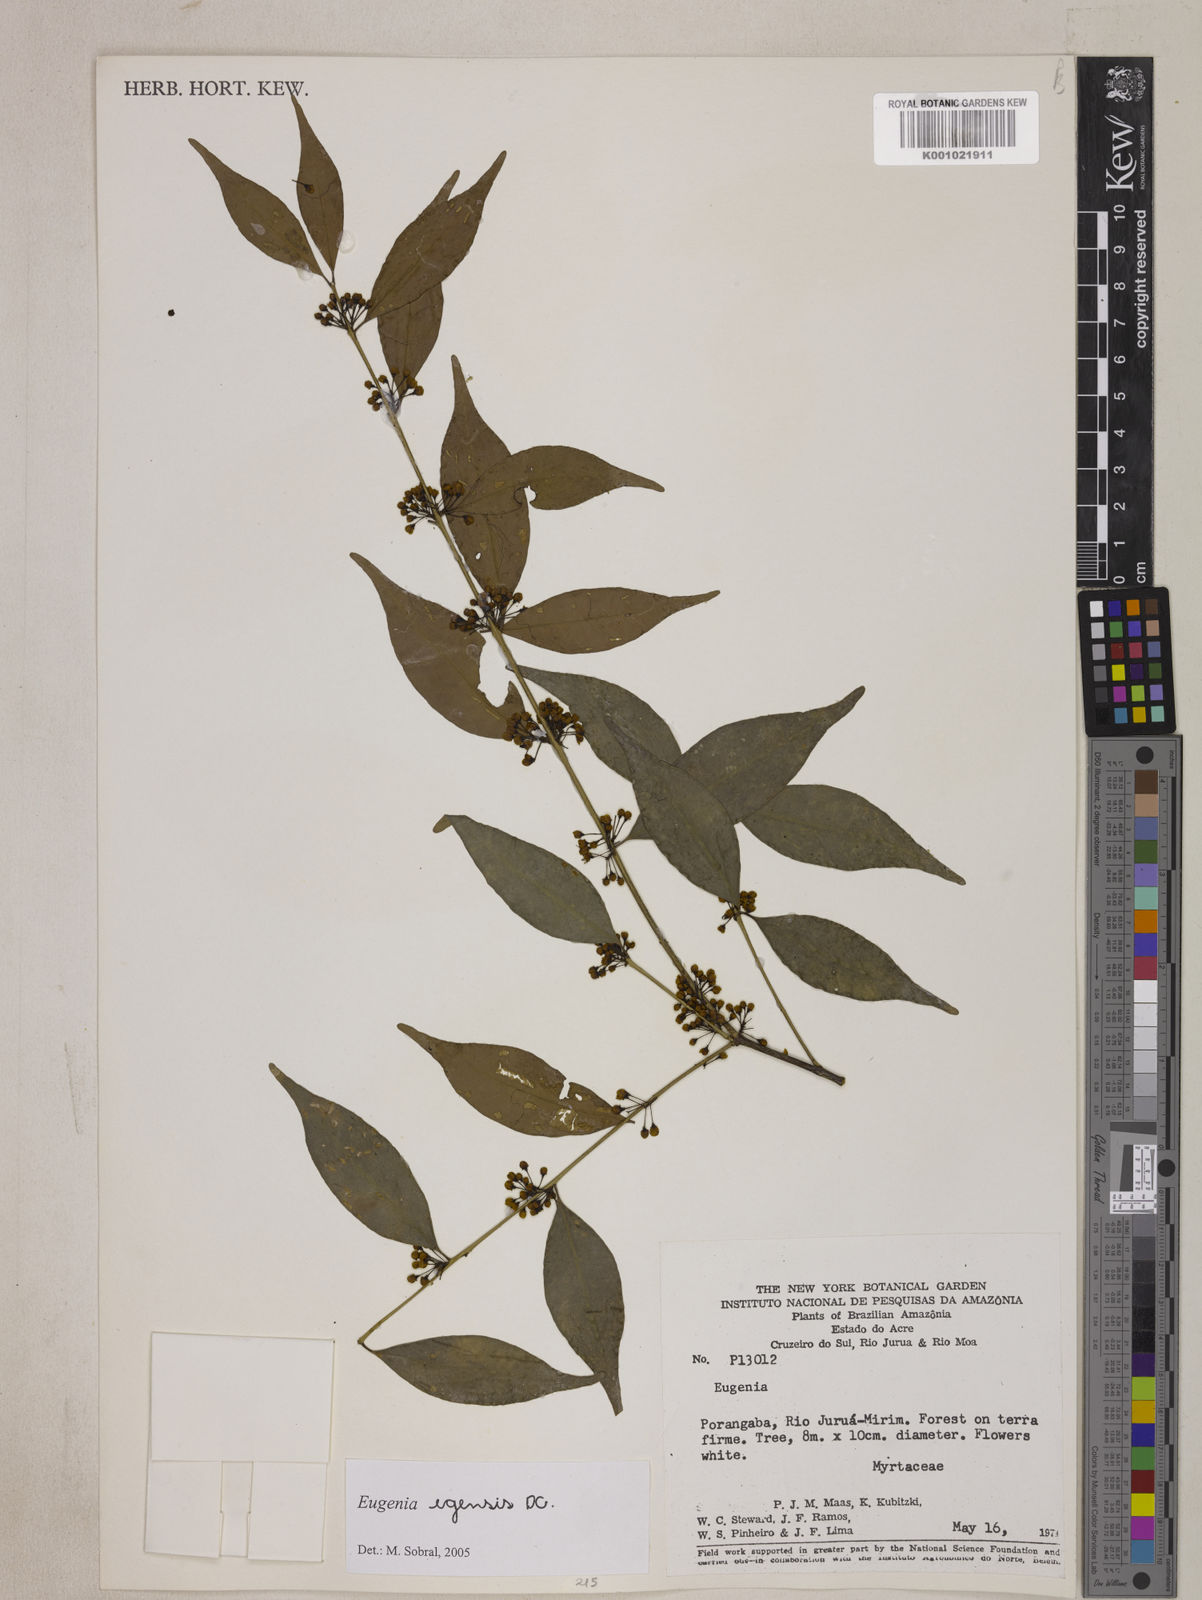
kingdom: Plantae
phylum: Tracheophyta
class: Magnoliopsida
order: Myrtales
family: Myrtaceae
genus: Eugenia
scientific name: Eugenia egensis
